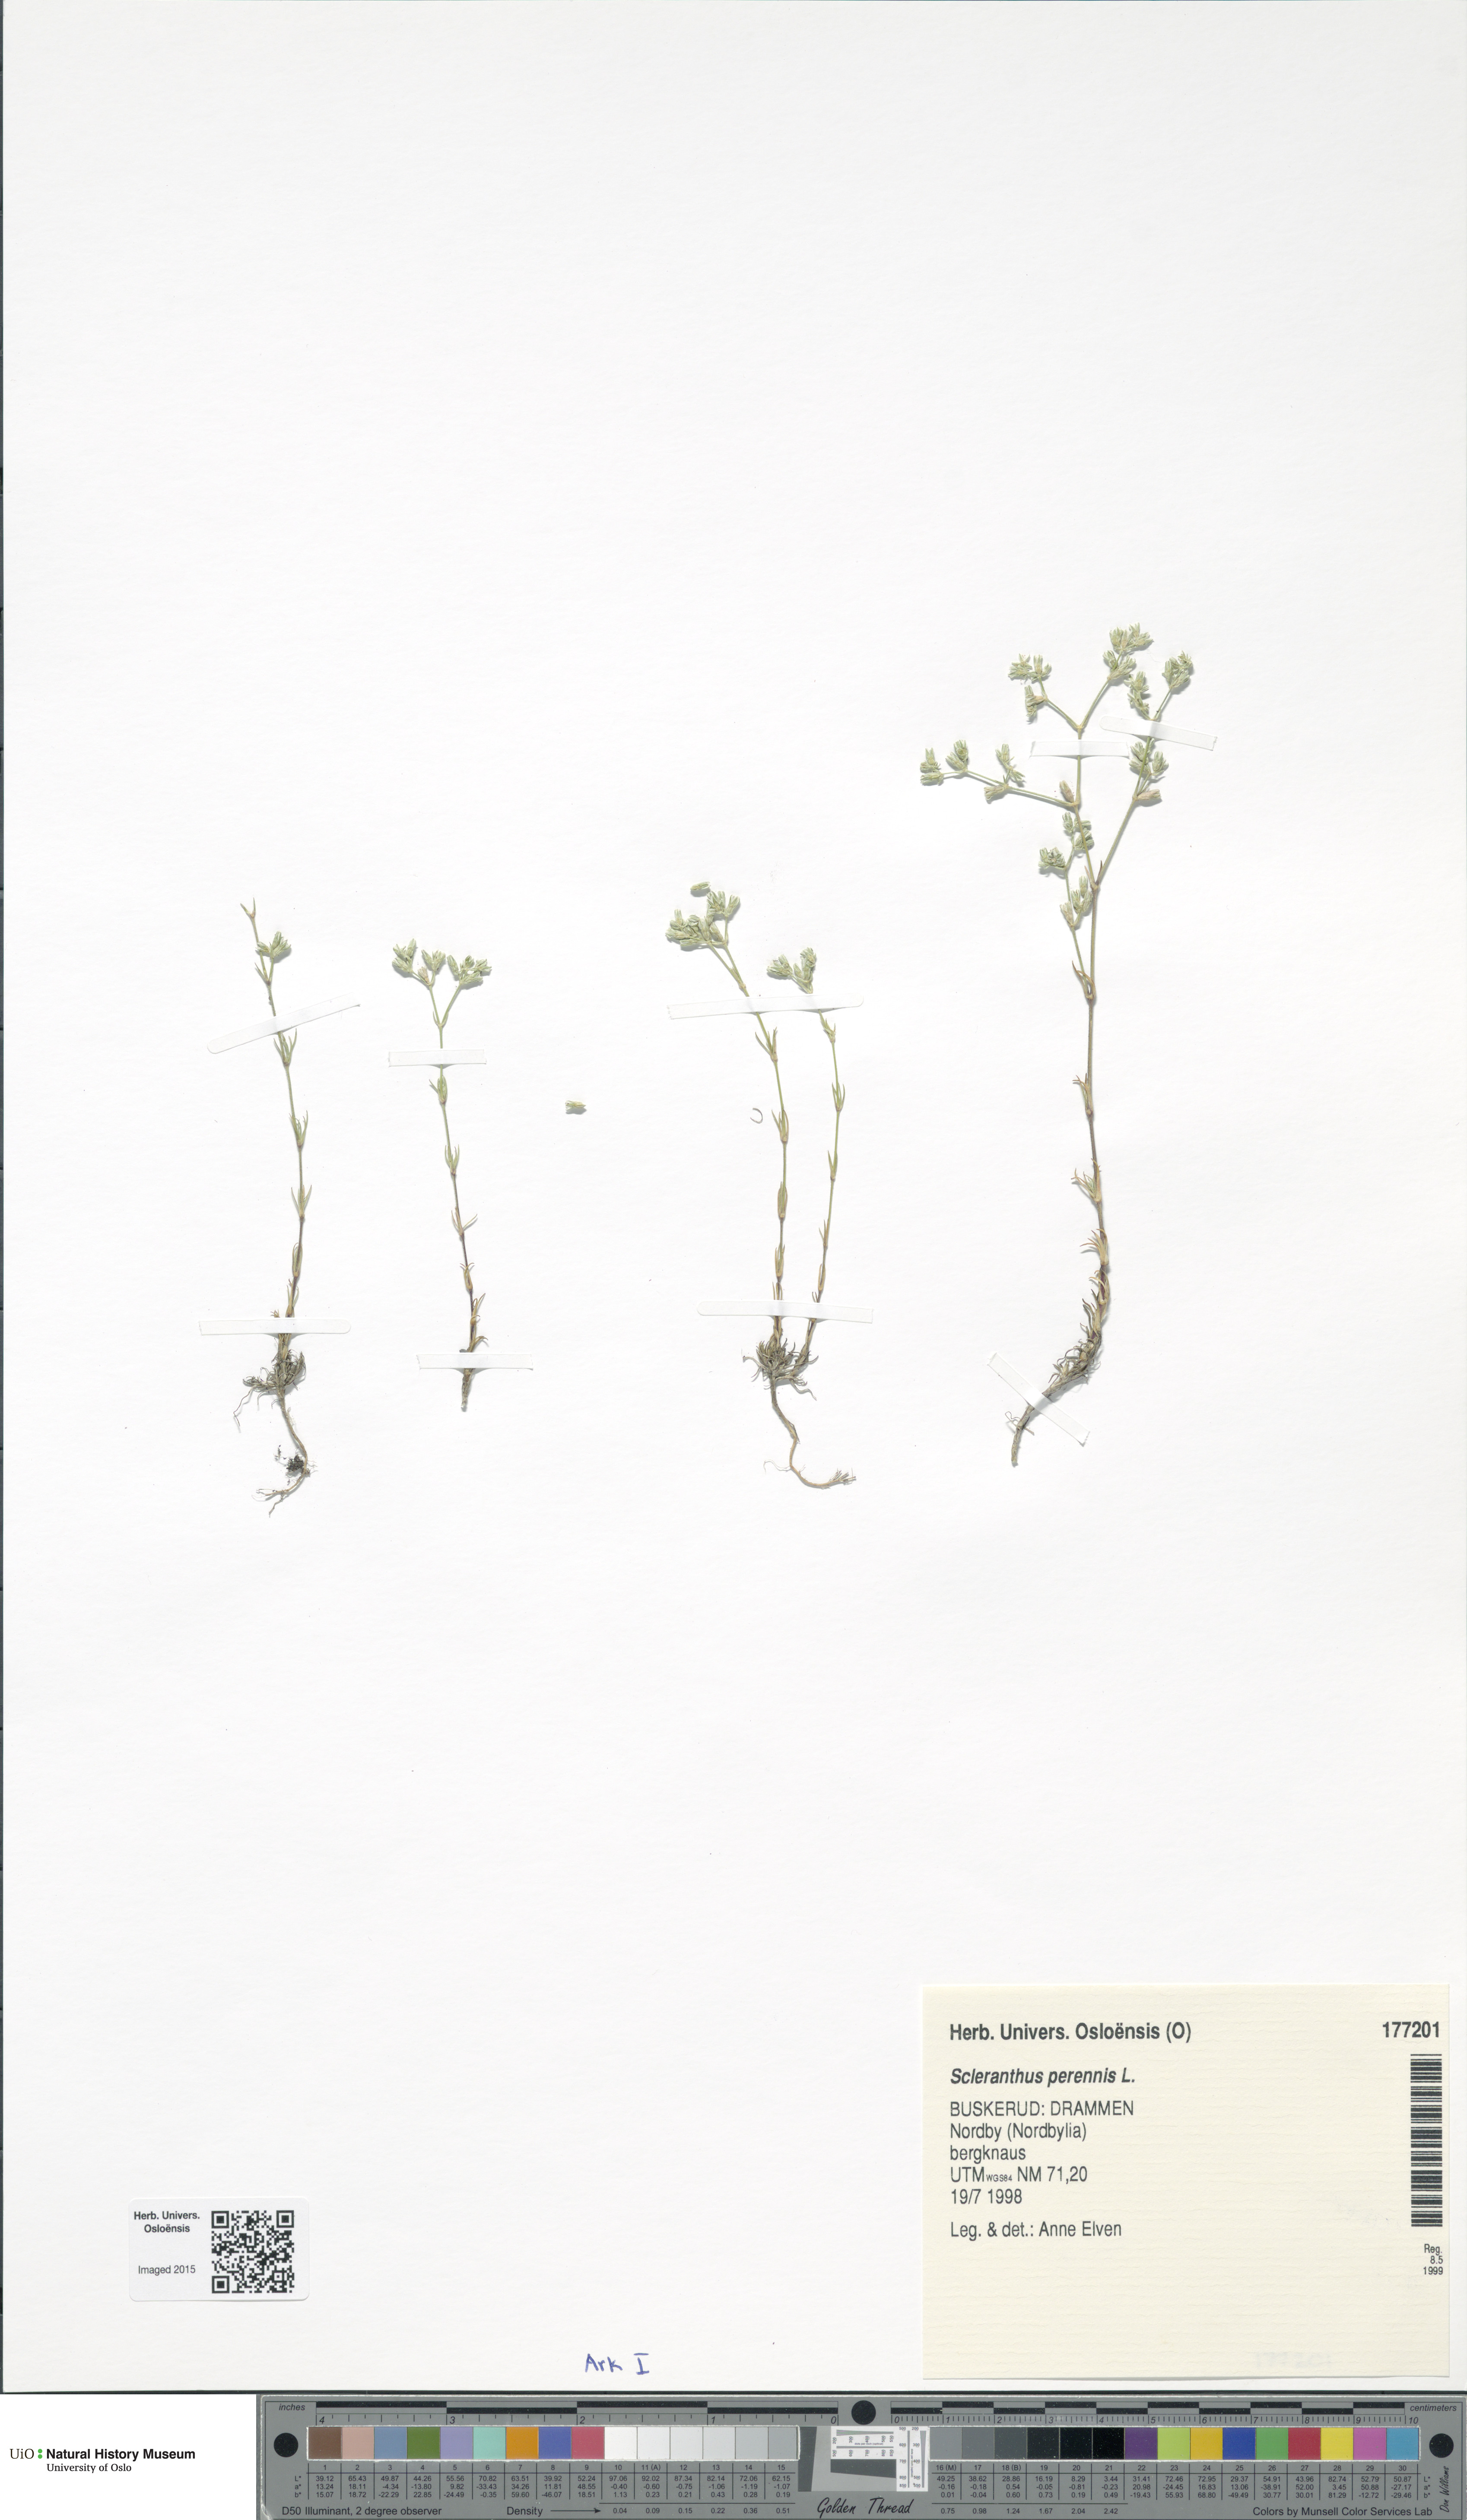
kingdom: Plantae
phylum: Tracheophyta
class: Magnoliopsida
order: Caryophyllales
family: Caryophyllaceae
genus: Scleranthus
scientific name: Scleranthus perennis
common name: Perennial knawel
